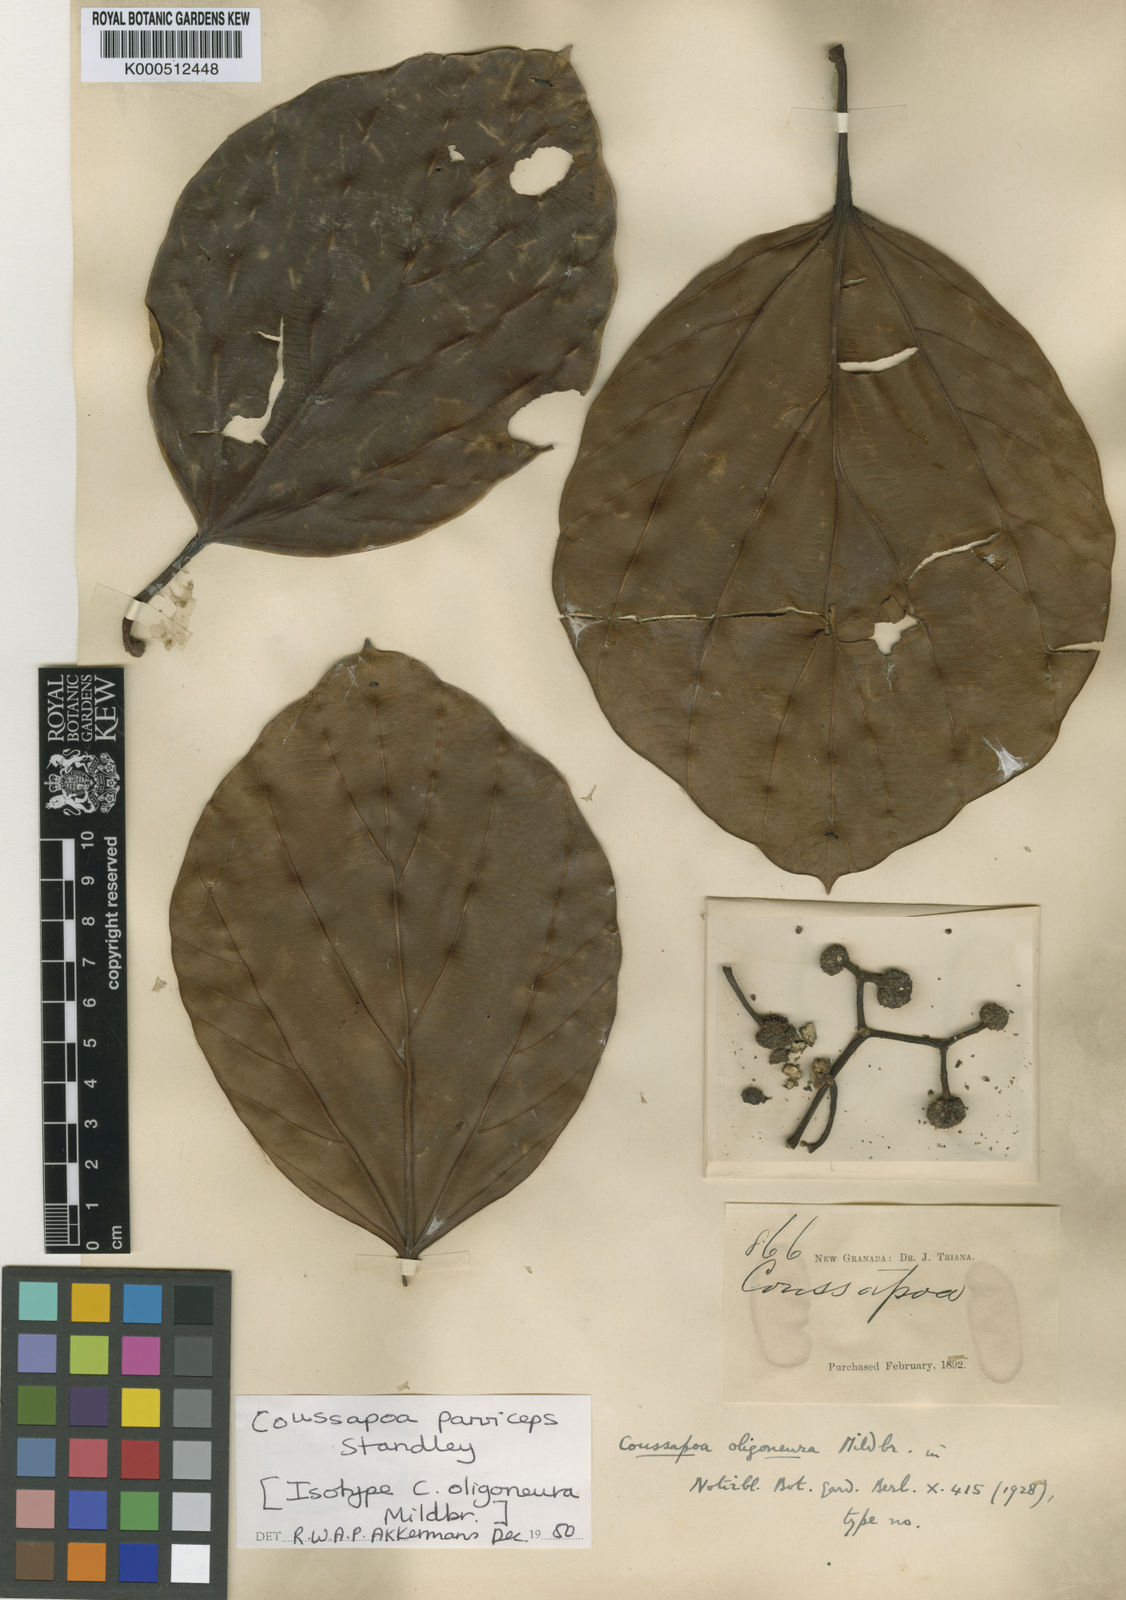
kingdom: Plantae
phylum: Tracheophyta
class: Magnoliopsida
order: Rosales
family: Urticaceae
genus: Coussapoa
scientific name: Coussapoa parviceps
